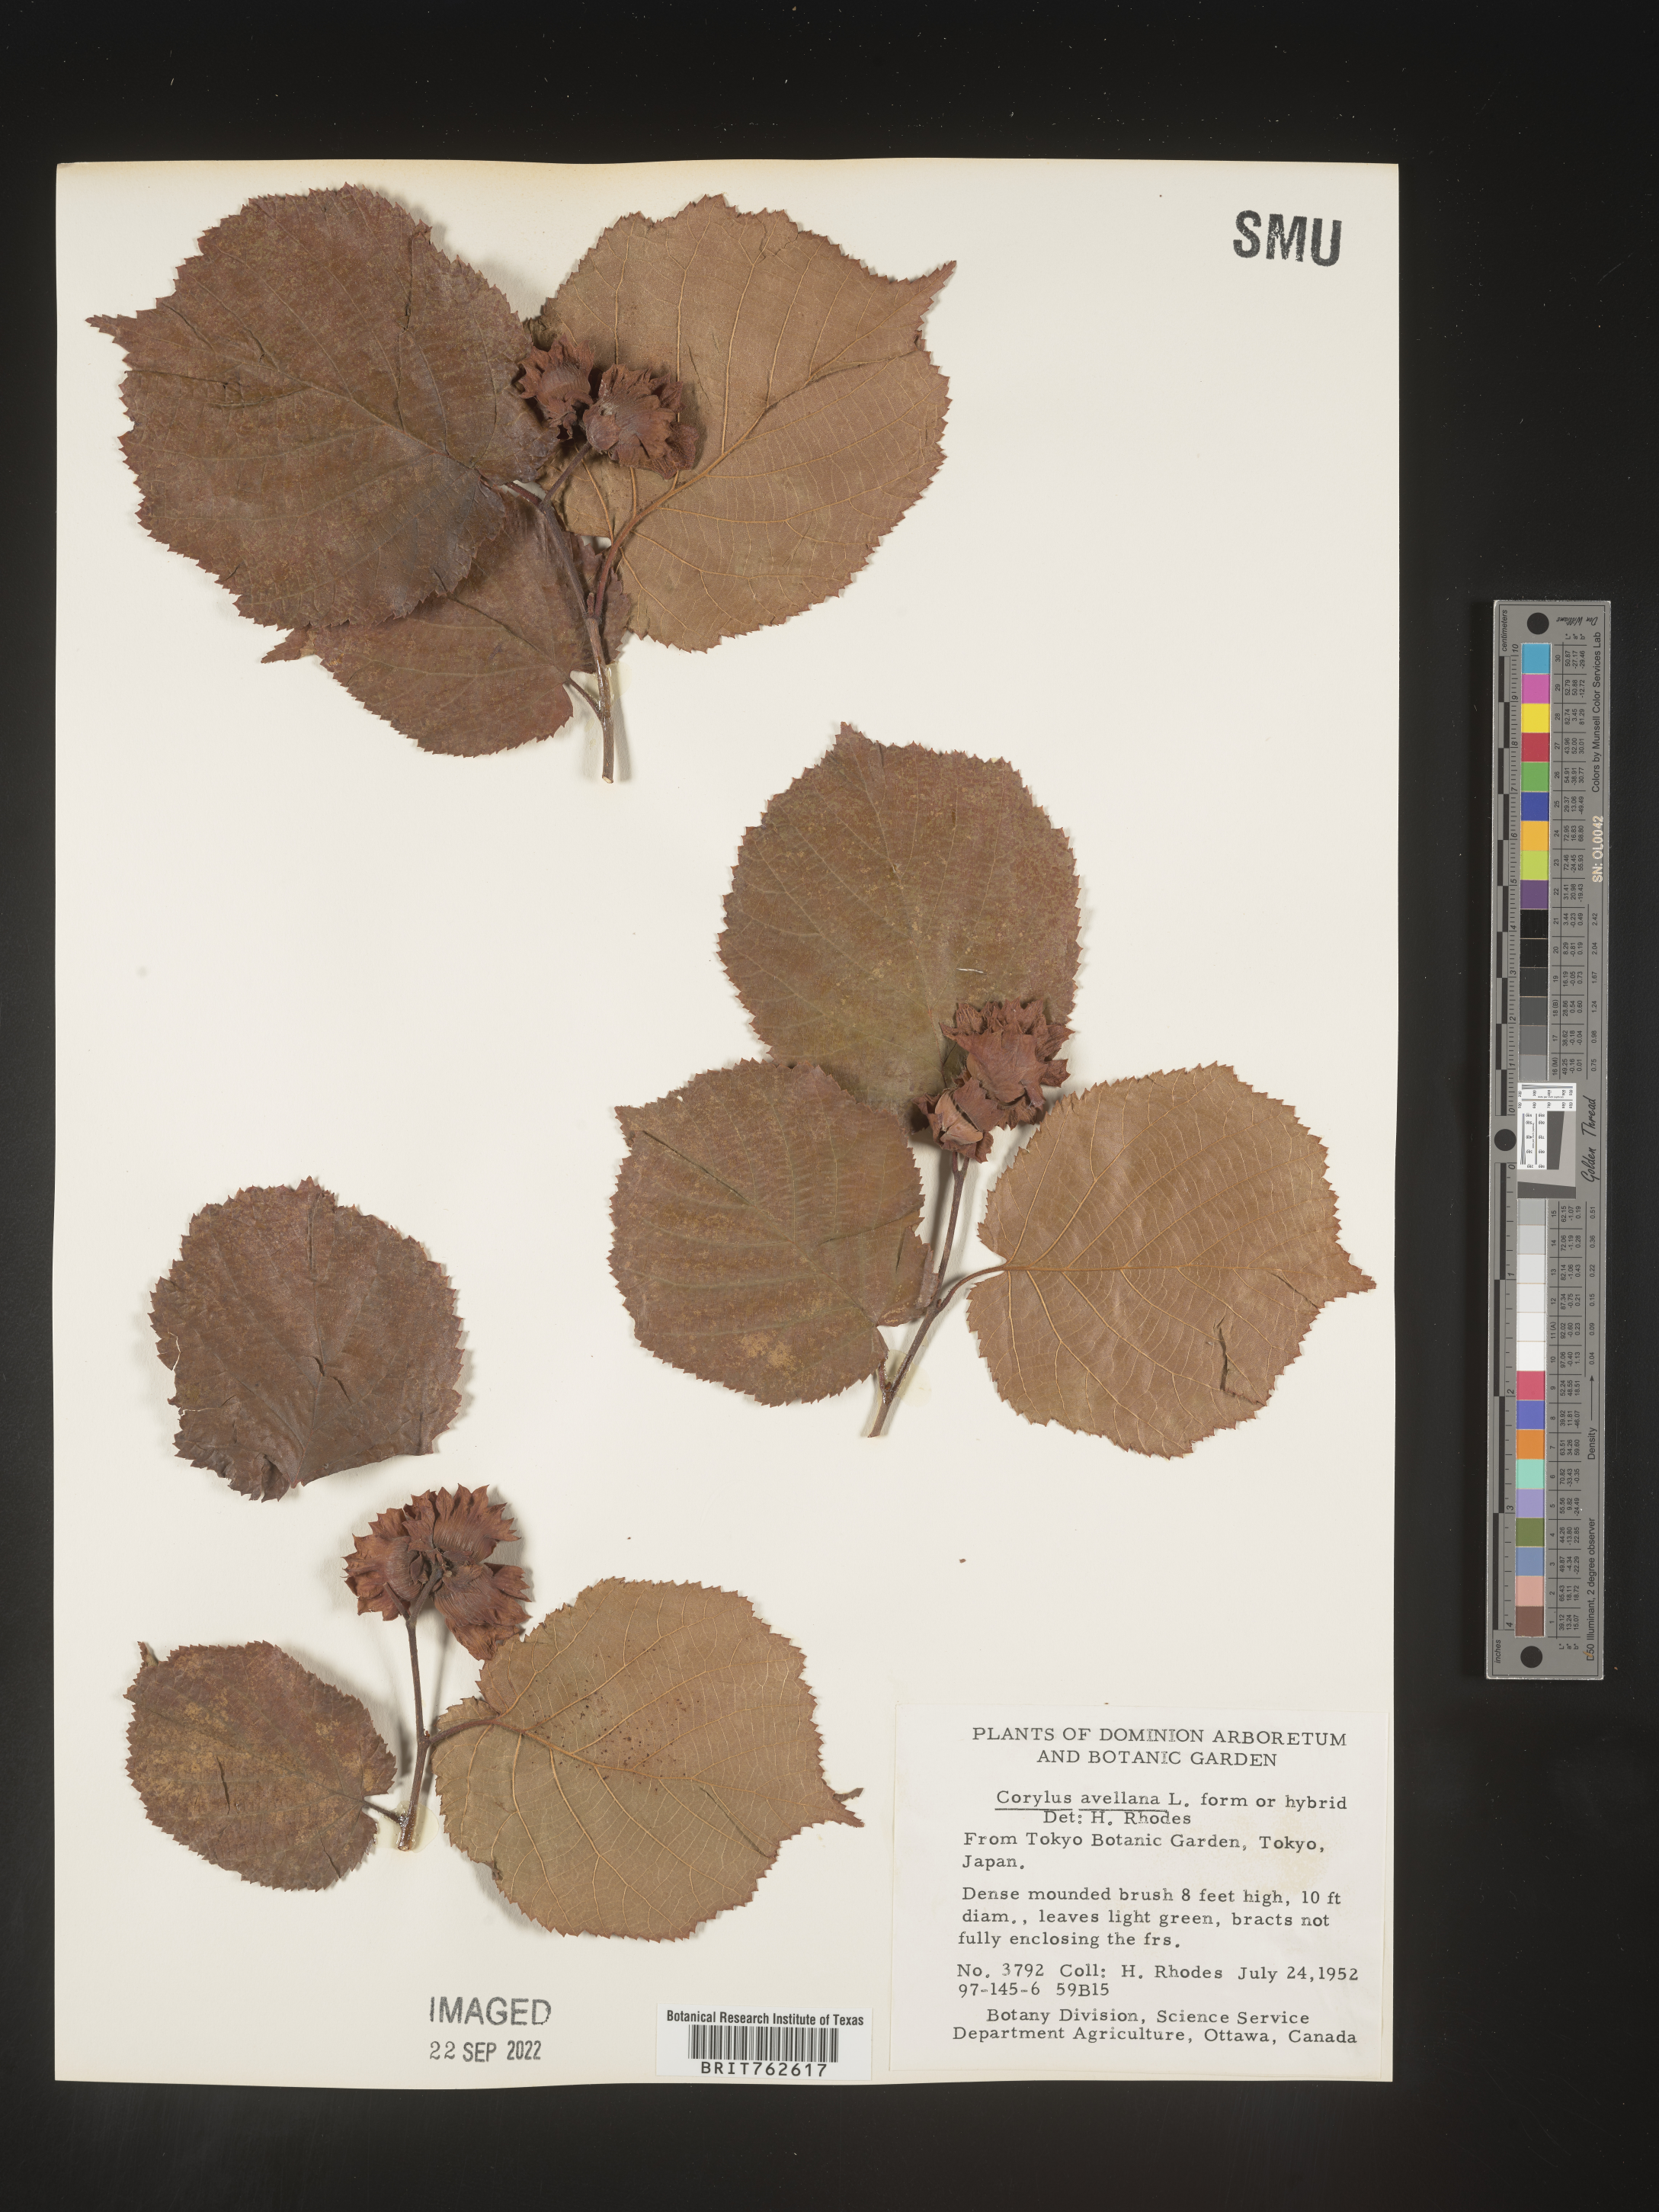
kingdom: Plantae
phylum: Tracheophyta
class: Magnoliopsida
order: Fagales
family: Betulaceae
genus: Corylus
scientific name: Corylus
